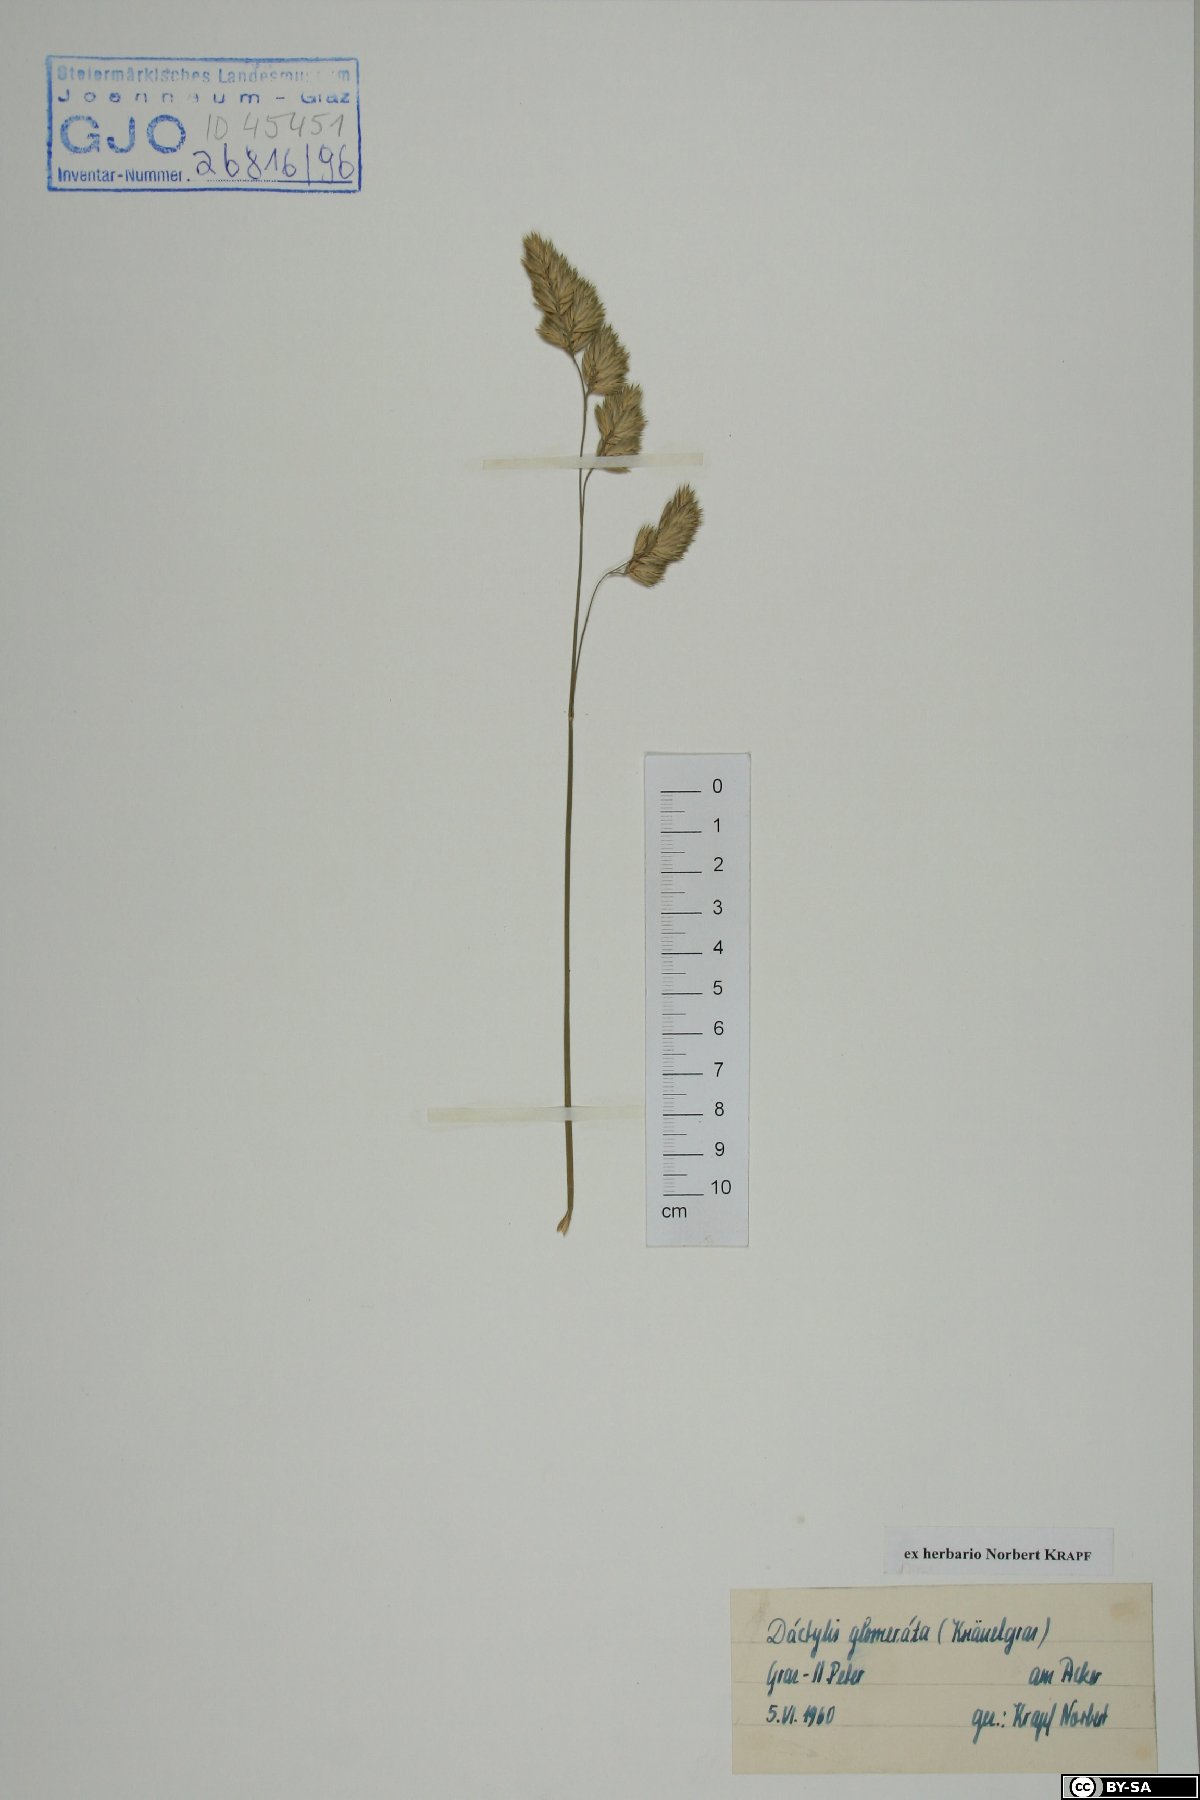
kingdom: Plantae
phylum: Tracheophyta
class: Liliopsida
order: Poales
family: Poaceae
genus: Dactylis
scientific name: Dactylis glomerata
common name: Orchardgrass
